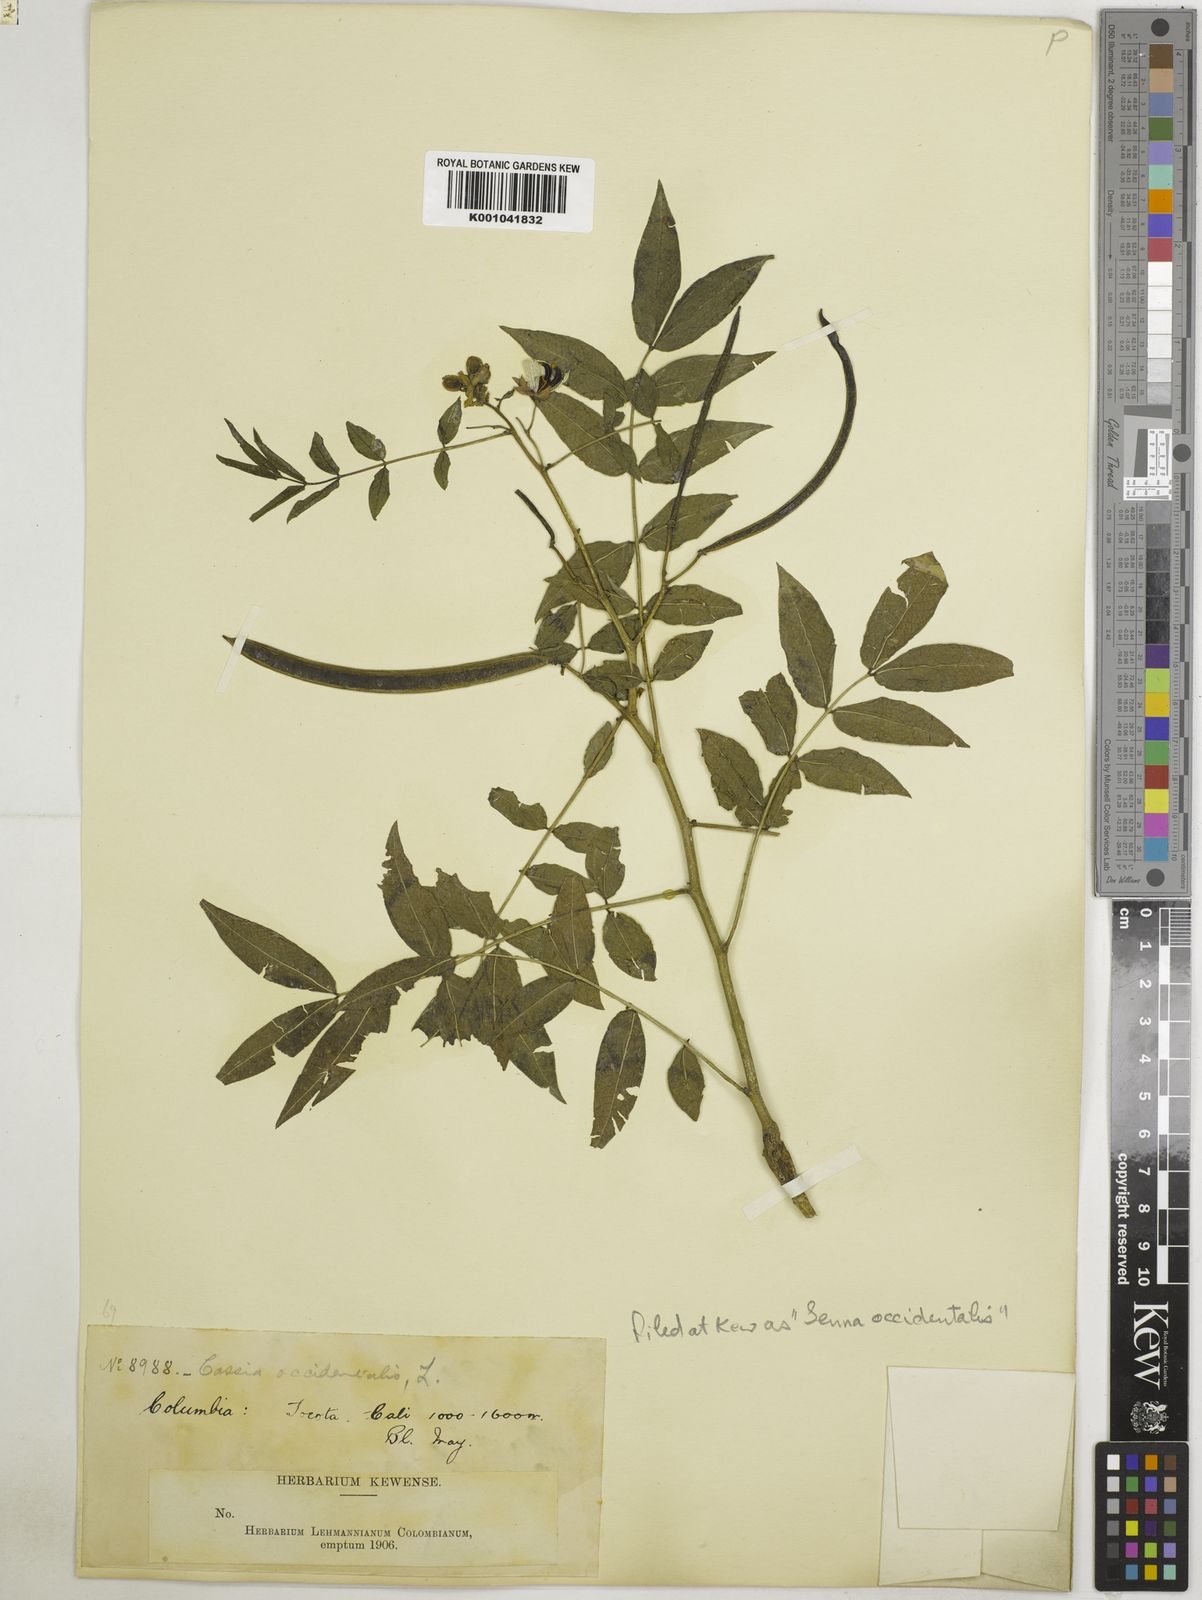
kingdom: Plantae
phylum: Tracheophyta
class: Magnoliopsida
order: Fabales
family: Fabaceae
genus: Senna
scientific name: Senna occidentalis
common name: Septicweed
